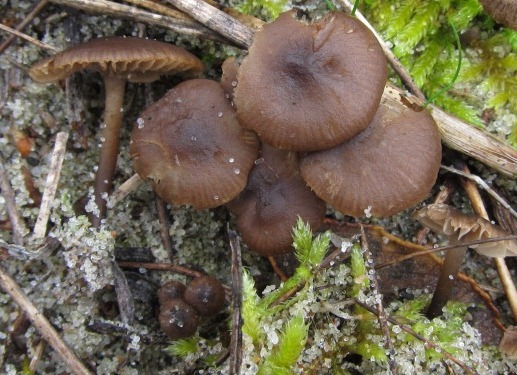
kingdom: Fungi
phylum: Basidiomycota
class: Agaricomycetes
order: Agaricales
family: Lyophyllaceae
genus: Tephrocybe
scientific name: Tephrocybe anthracophila
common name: svedje-gråblad
